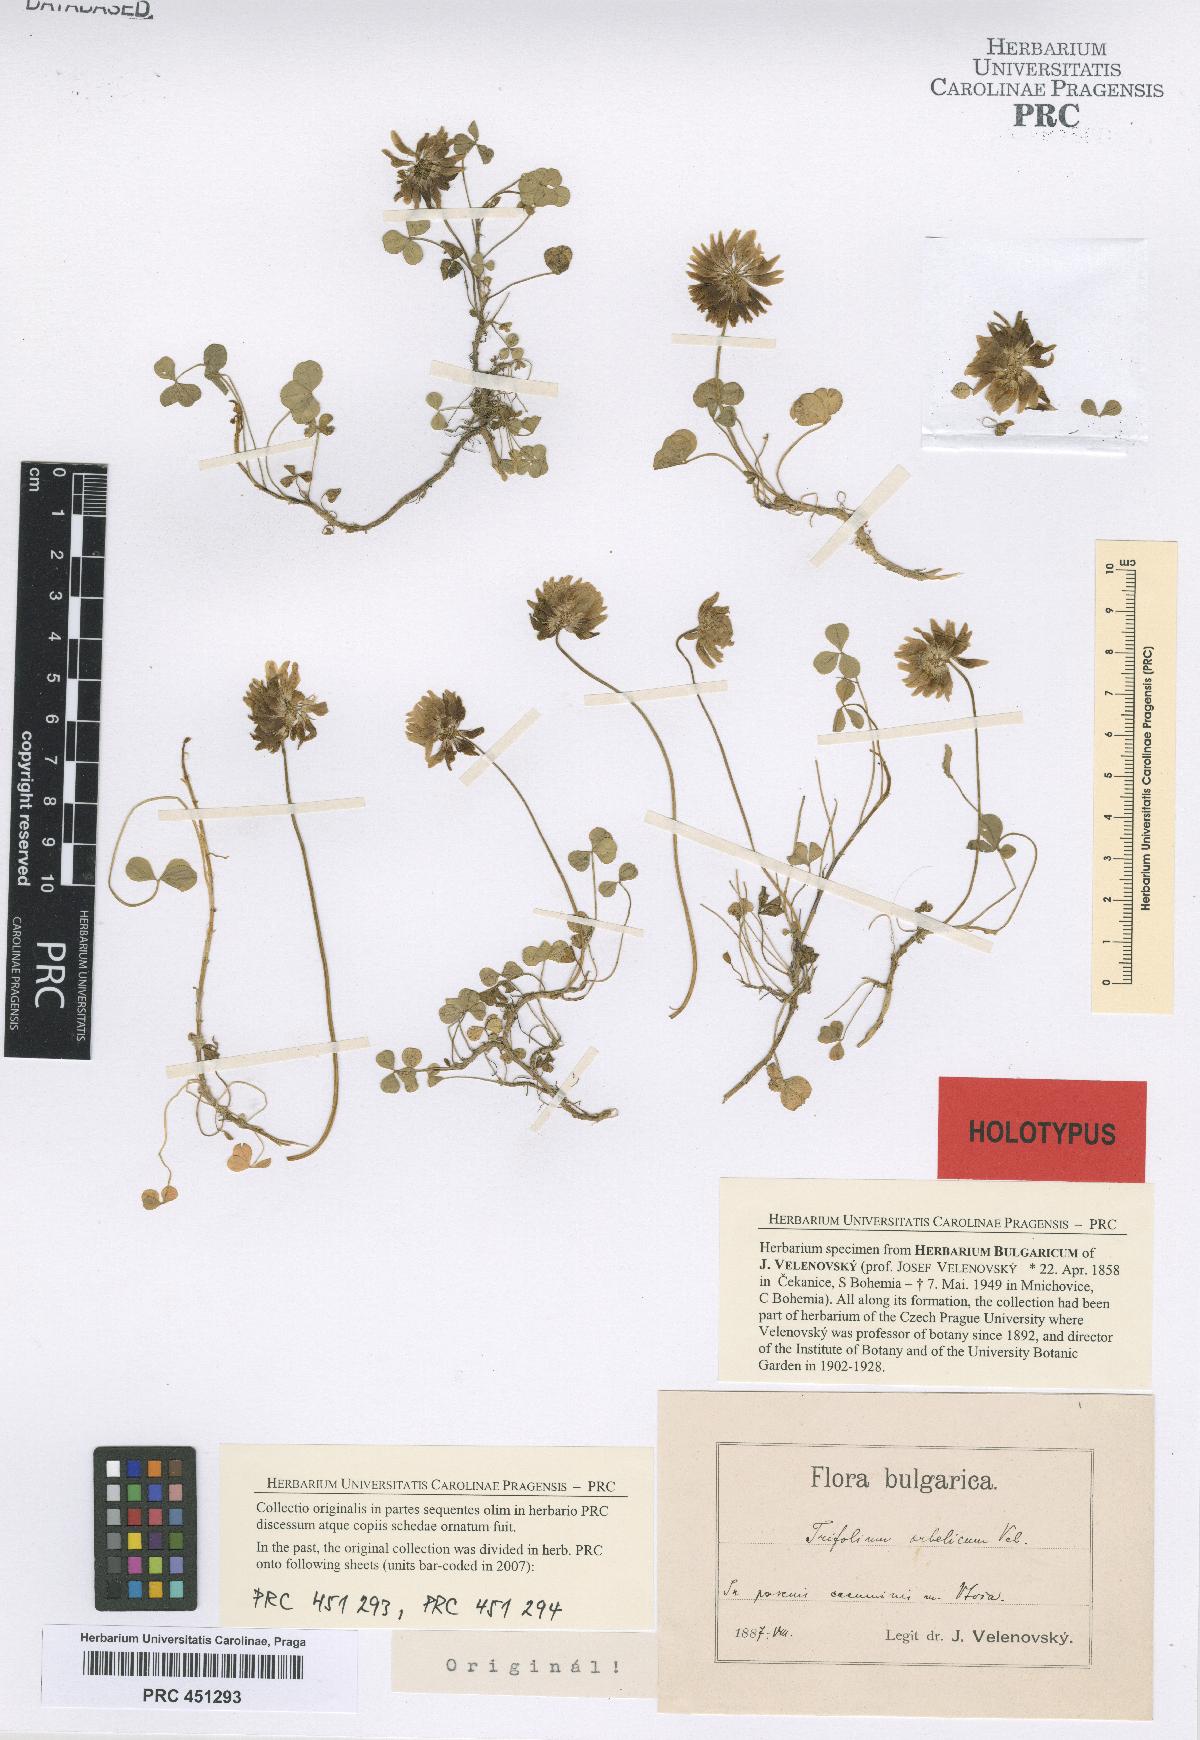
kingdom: Plantae
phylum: Tracheophyta
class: Magnoliopsida
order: Fabales
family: Fabaceae
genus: Trifolium
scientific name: Trifolium orbelicum
